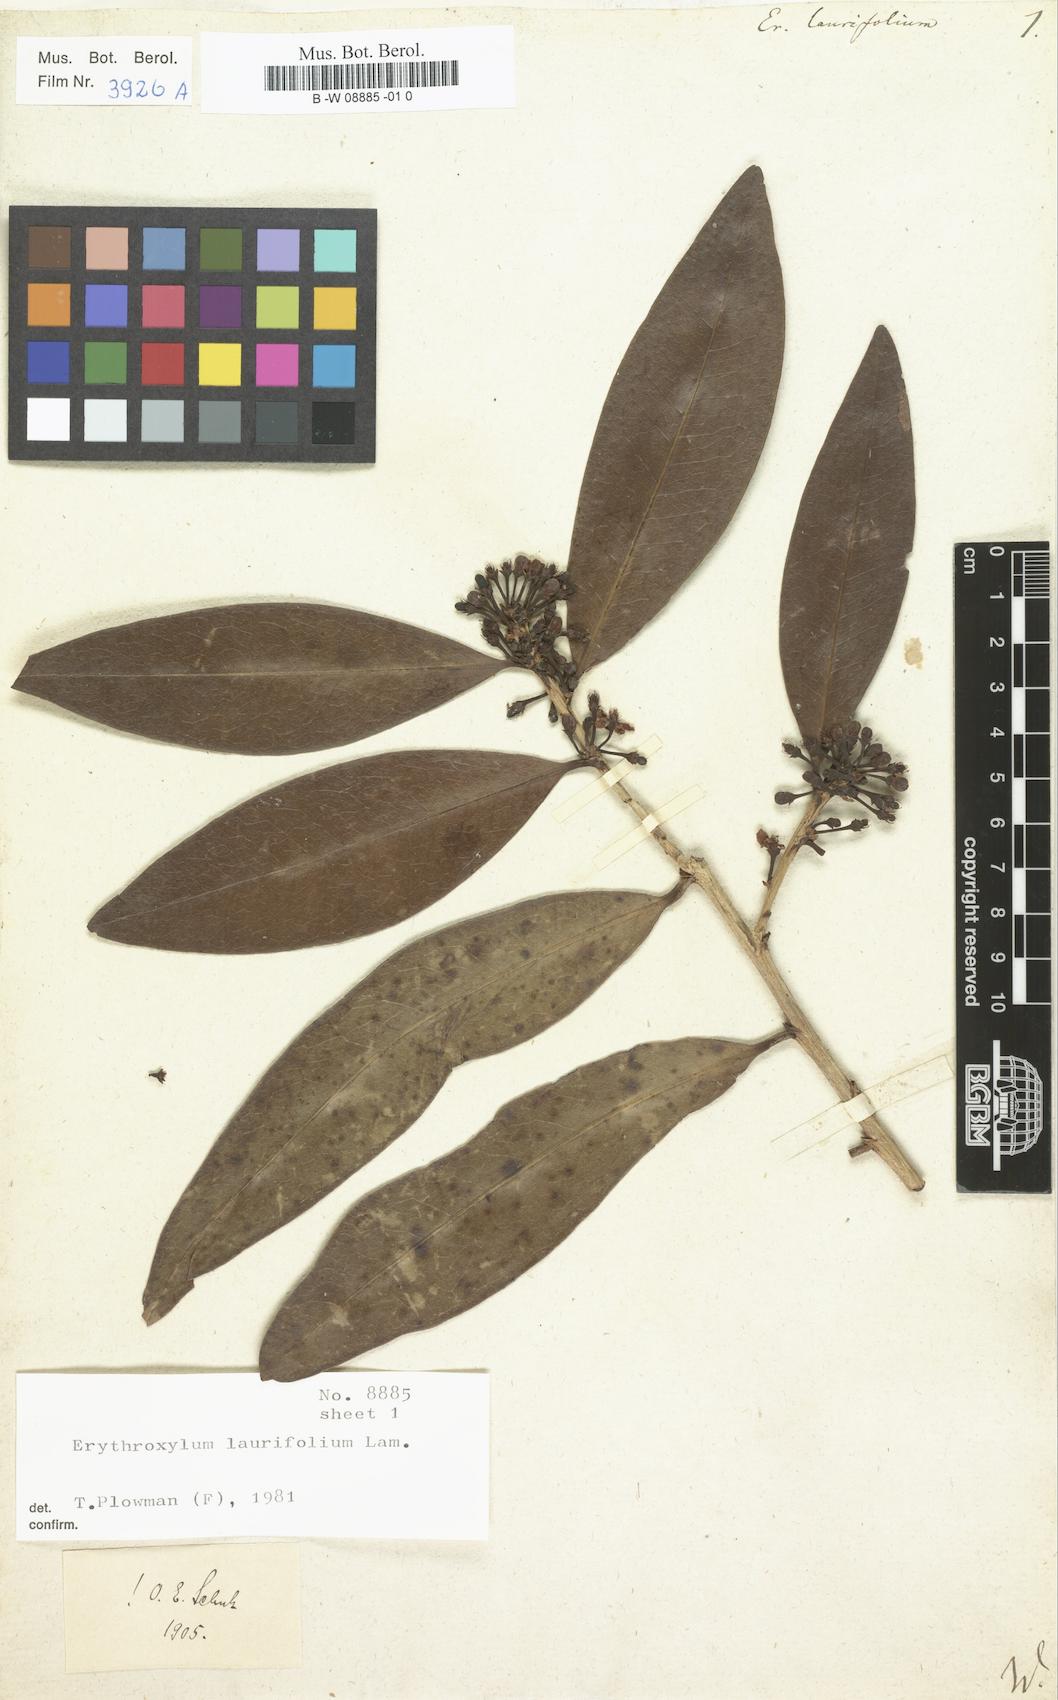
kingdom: Plantae
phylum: Tracheophyta
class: Magnoliopsida
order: Malpighiales
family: Erythroxylaceae
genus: Erythroxylum
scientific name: Erythroxylum laurifolium
